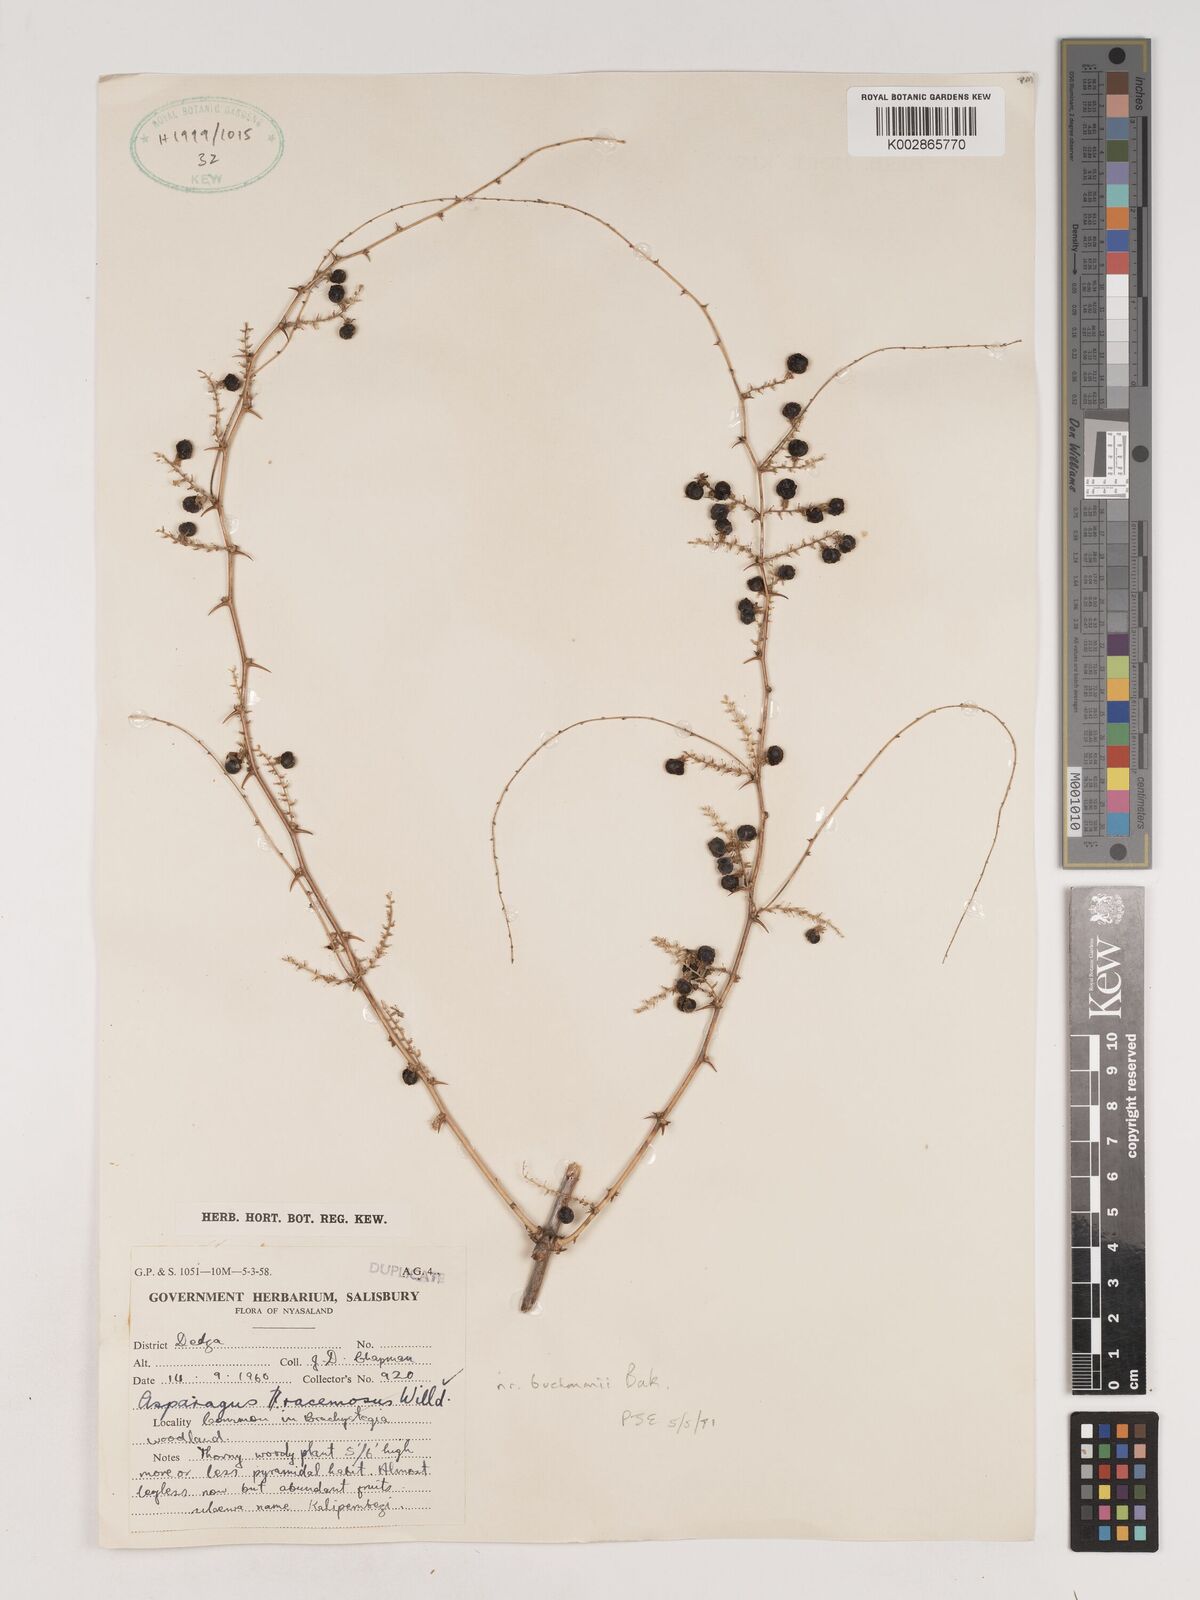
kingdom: Plantae
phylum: Tracheophyta
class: Liliopsida
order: Asparagales
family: Asparagaceae
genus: Asparagus
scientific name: Asparagus buchananii
